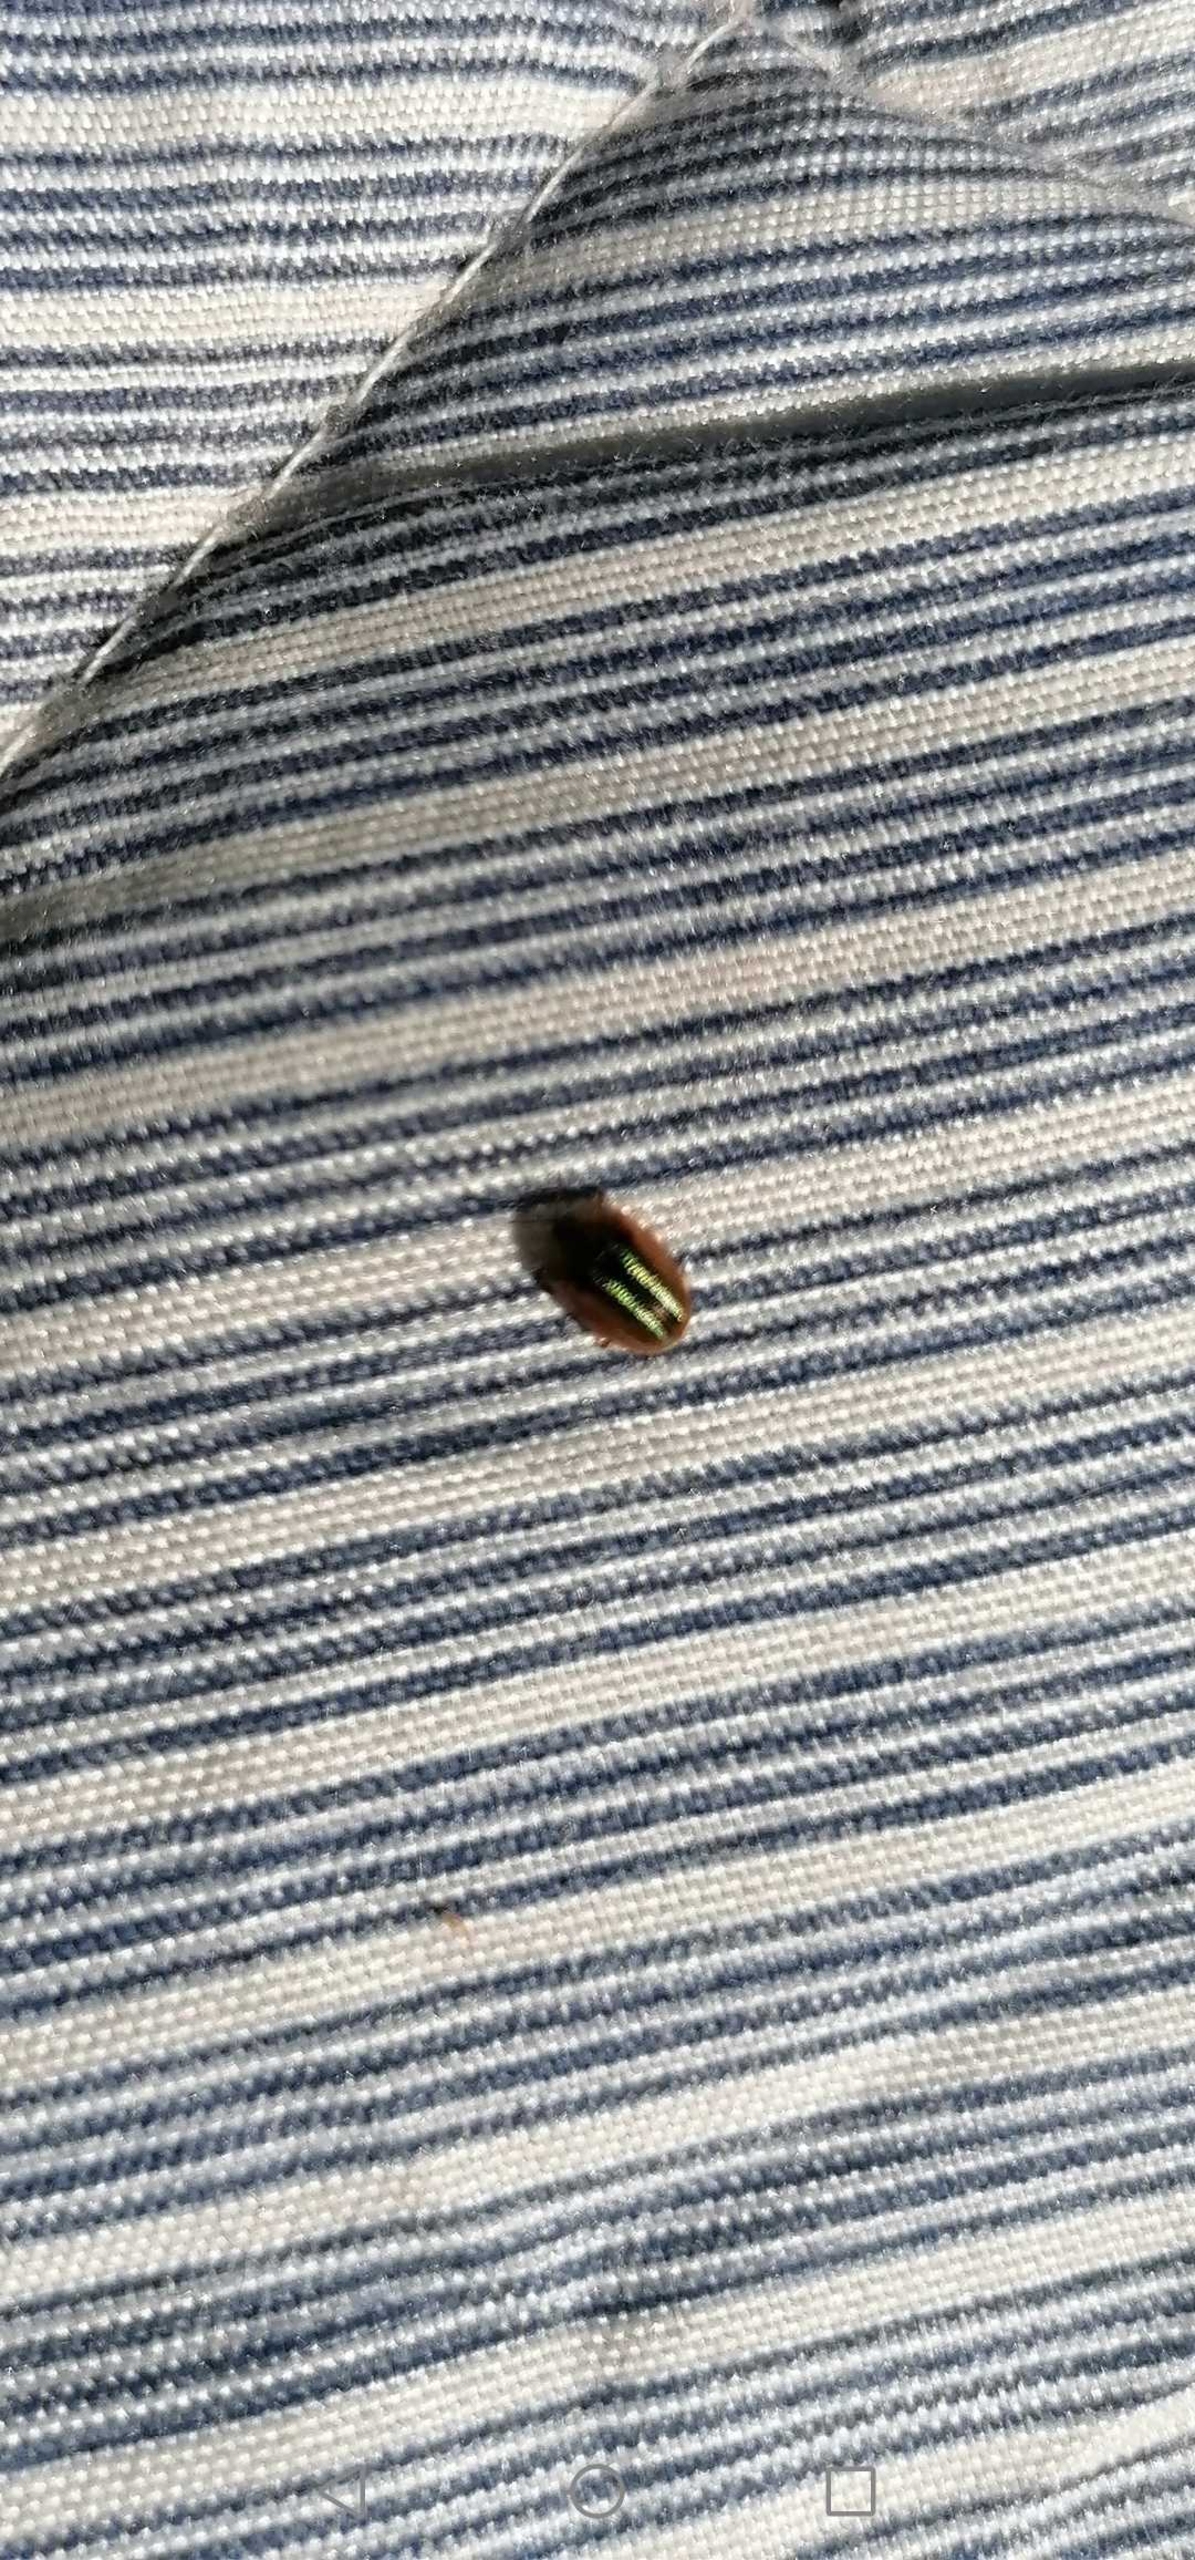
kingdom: Animalia
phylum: Arthropoda
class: Insecta
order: Coleoptera
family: Chrysomelidae
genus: Cassida
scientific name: Cassida nobilis
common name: Sølvstribet skjoldbille
